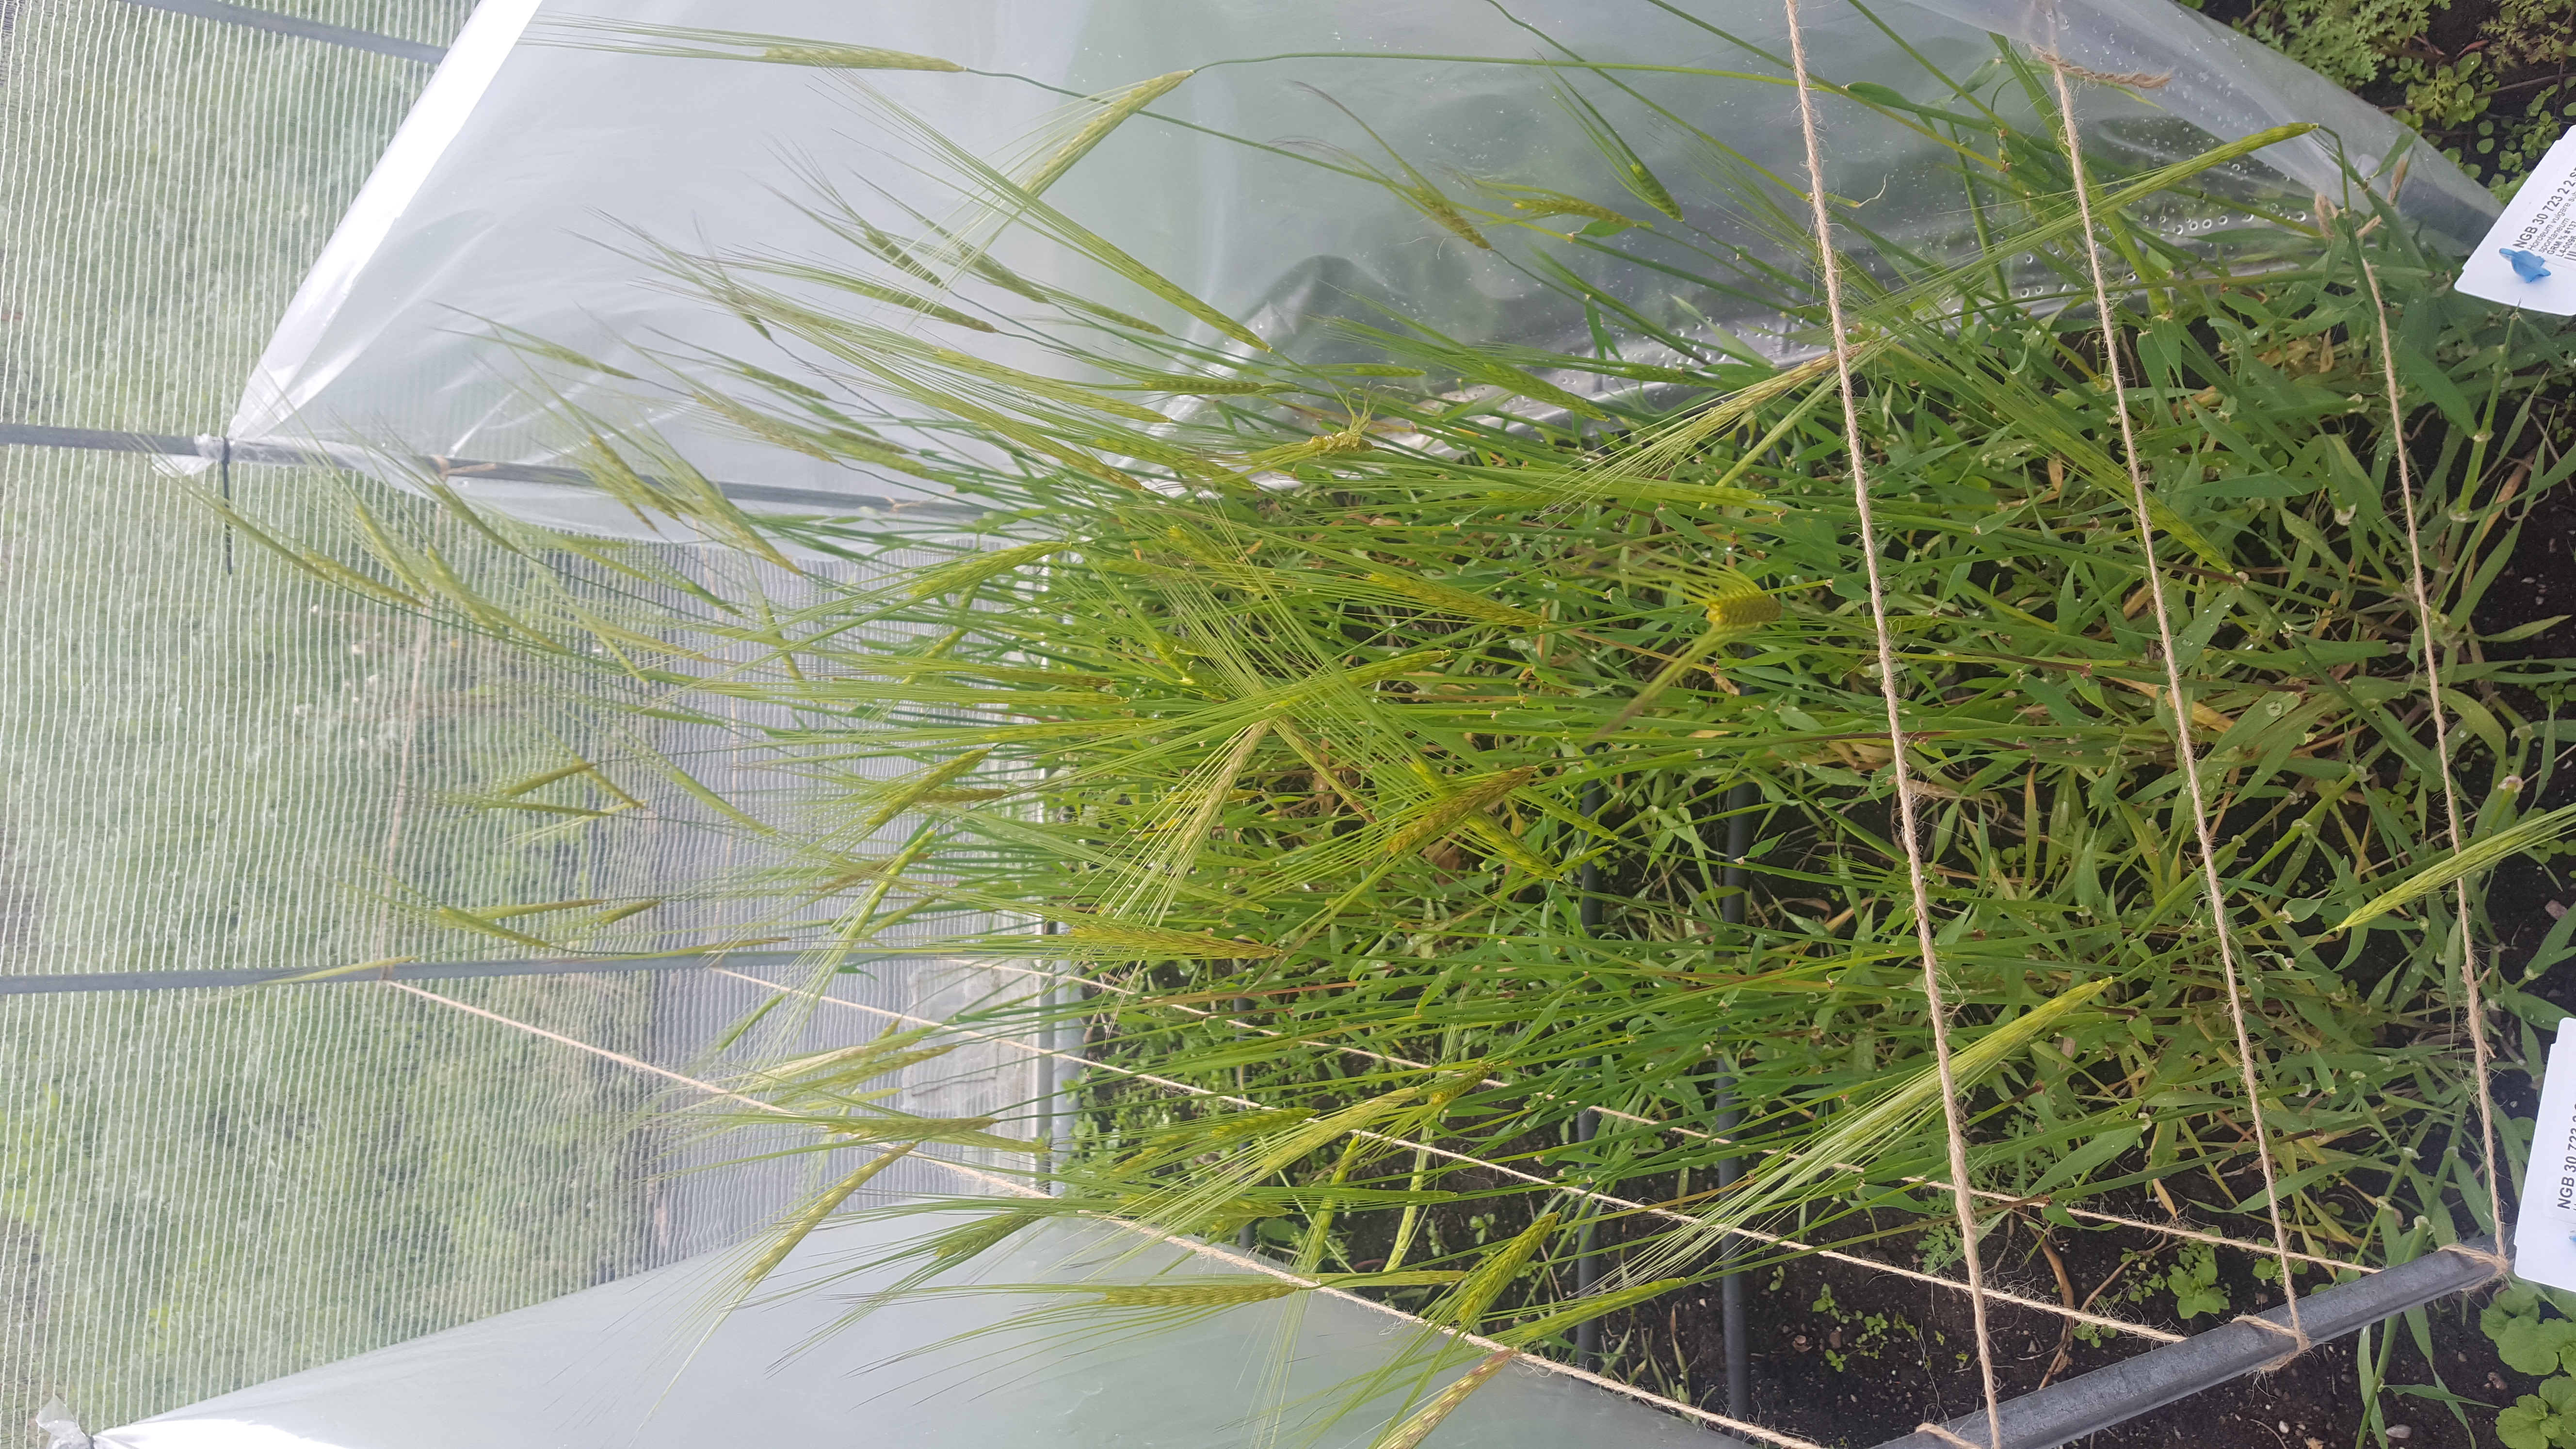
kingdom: Plantae
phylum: Tracheophyta
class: Liliopsida
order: Poales
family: Poaceae
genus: Hordeum
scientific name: Hordeum spontaneum
